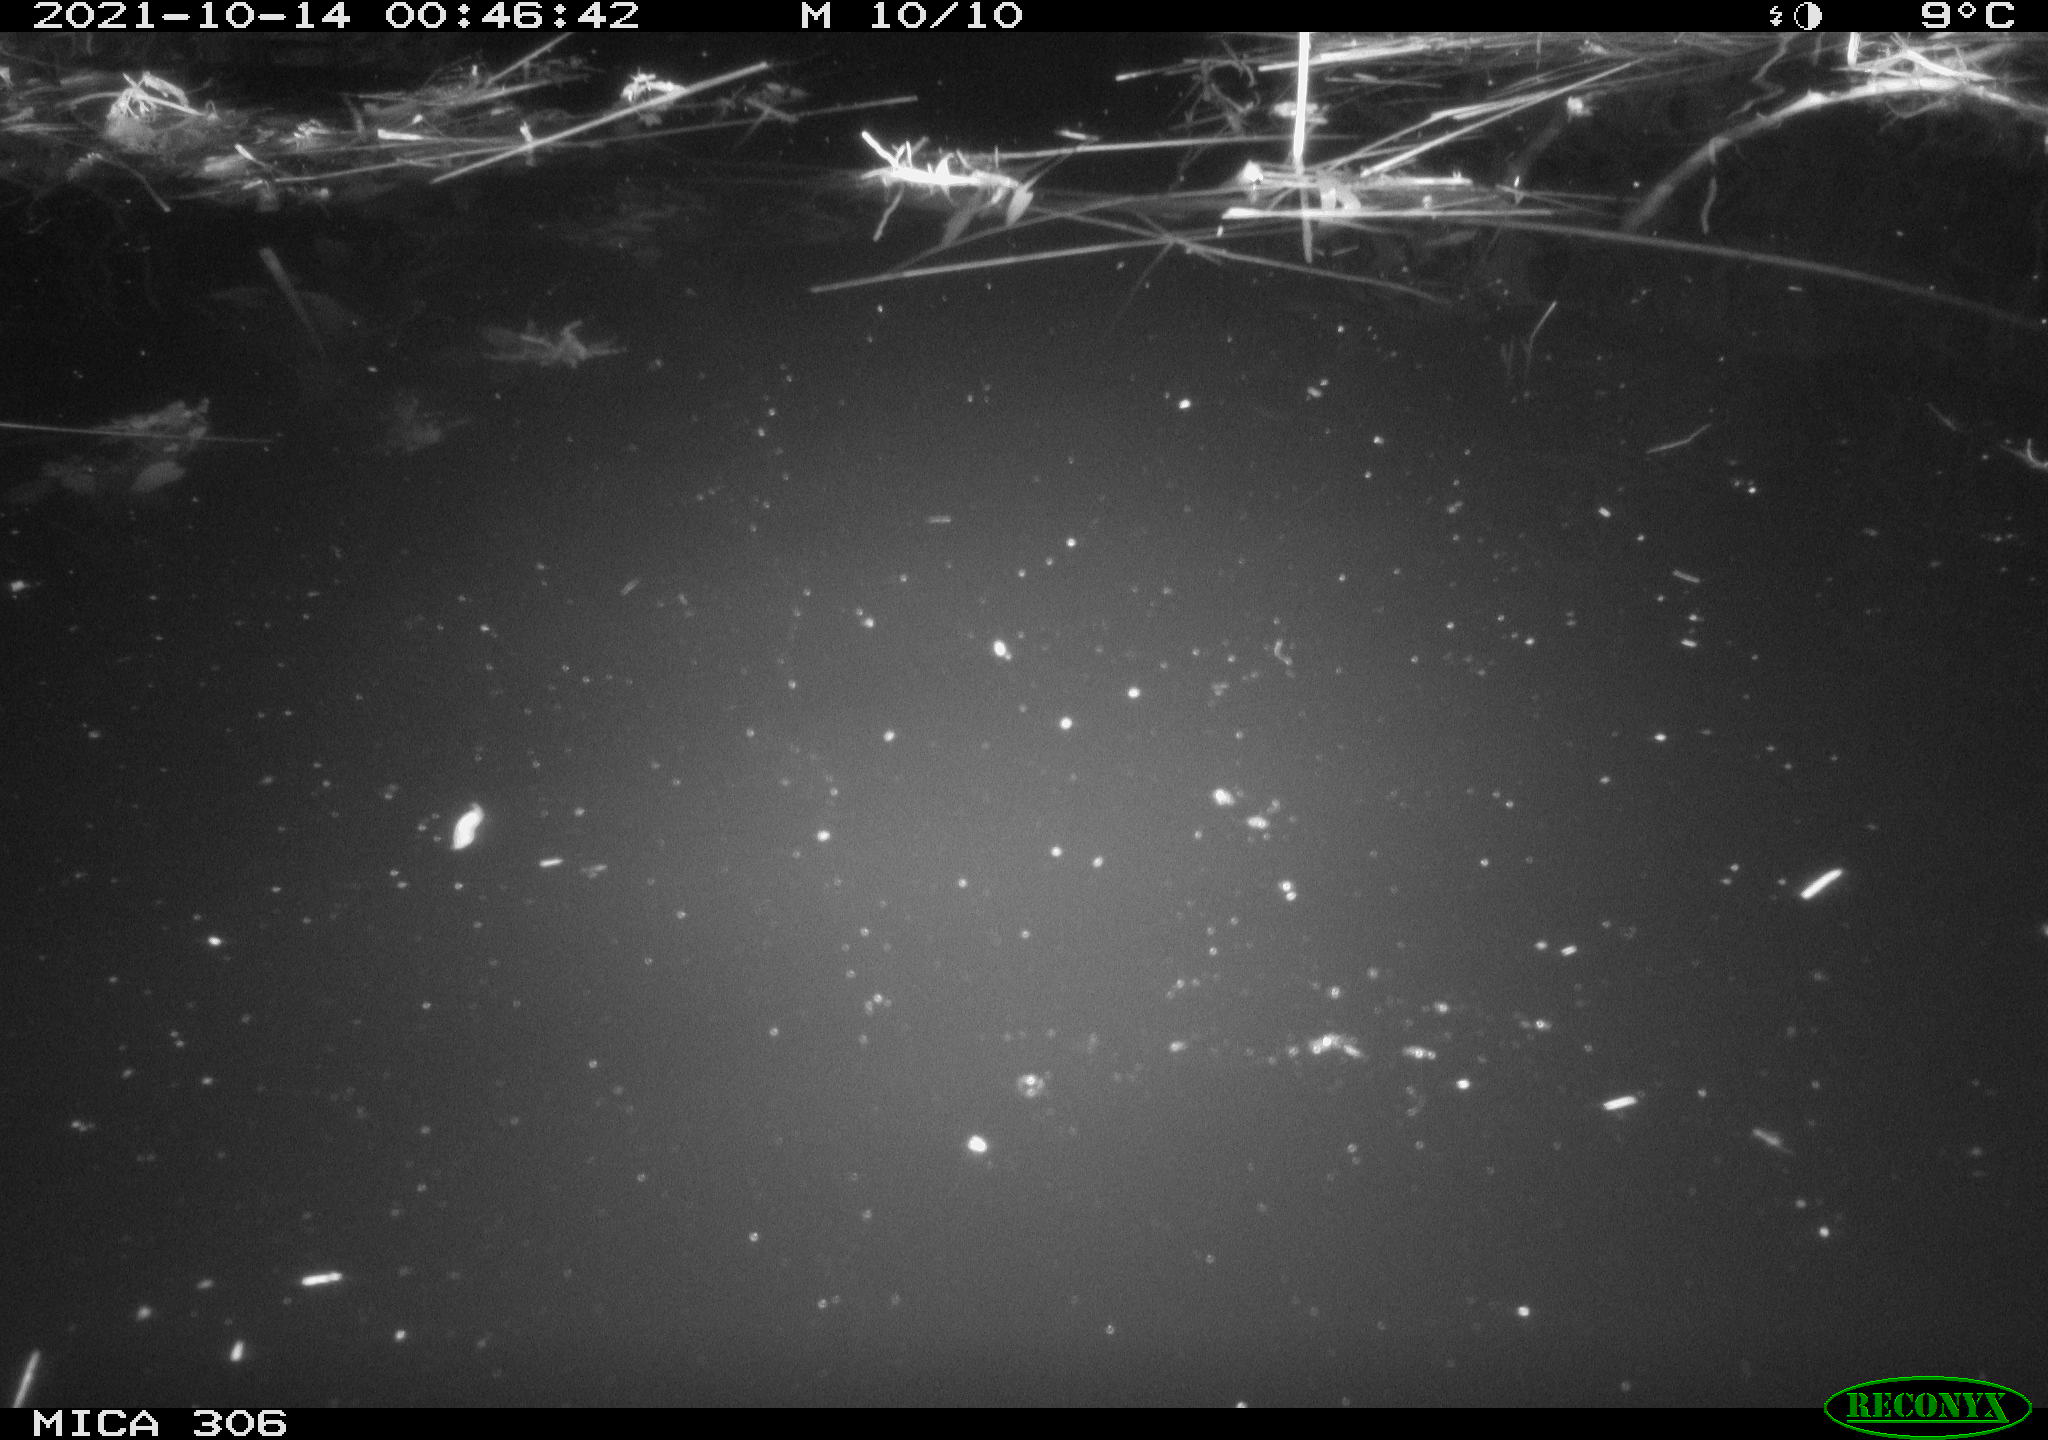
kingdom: Animalia
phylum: Chordata
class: Mammalia
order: Rodentia
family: Cricetidae
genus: Ondatra
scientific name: Ondatra zibethicus
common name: Muskrat
